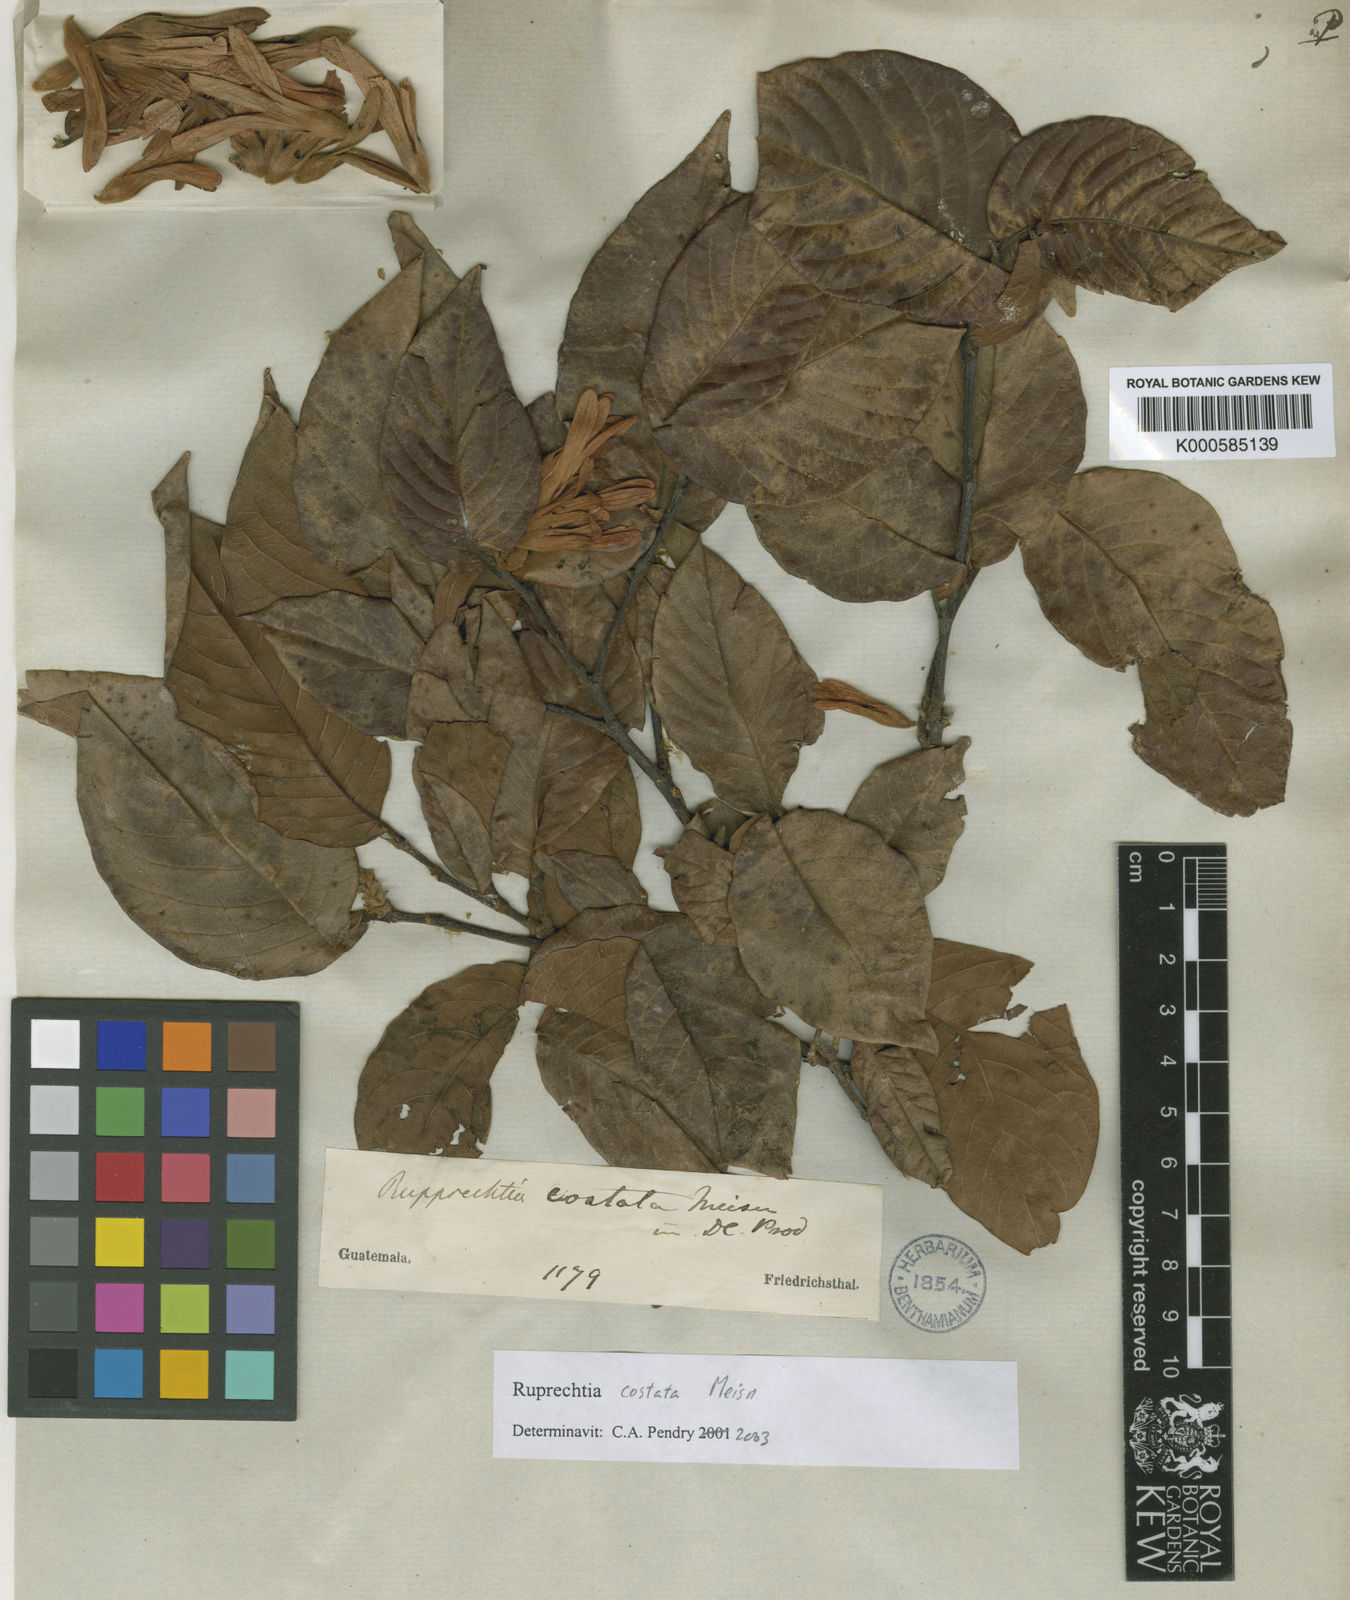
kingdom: Plantae
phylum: Tracheophyta
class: Magnoliopsida
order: Caryophyllales
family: Polygonaceae
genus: Ruprechtia
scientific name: Ruprechtia costata
